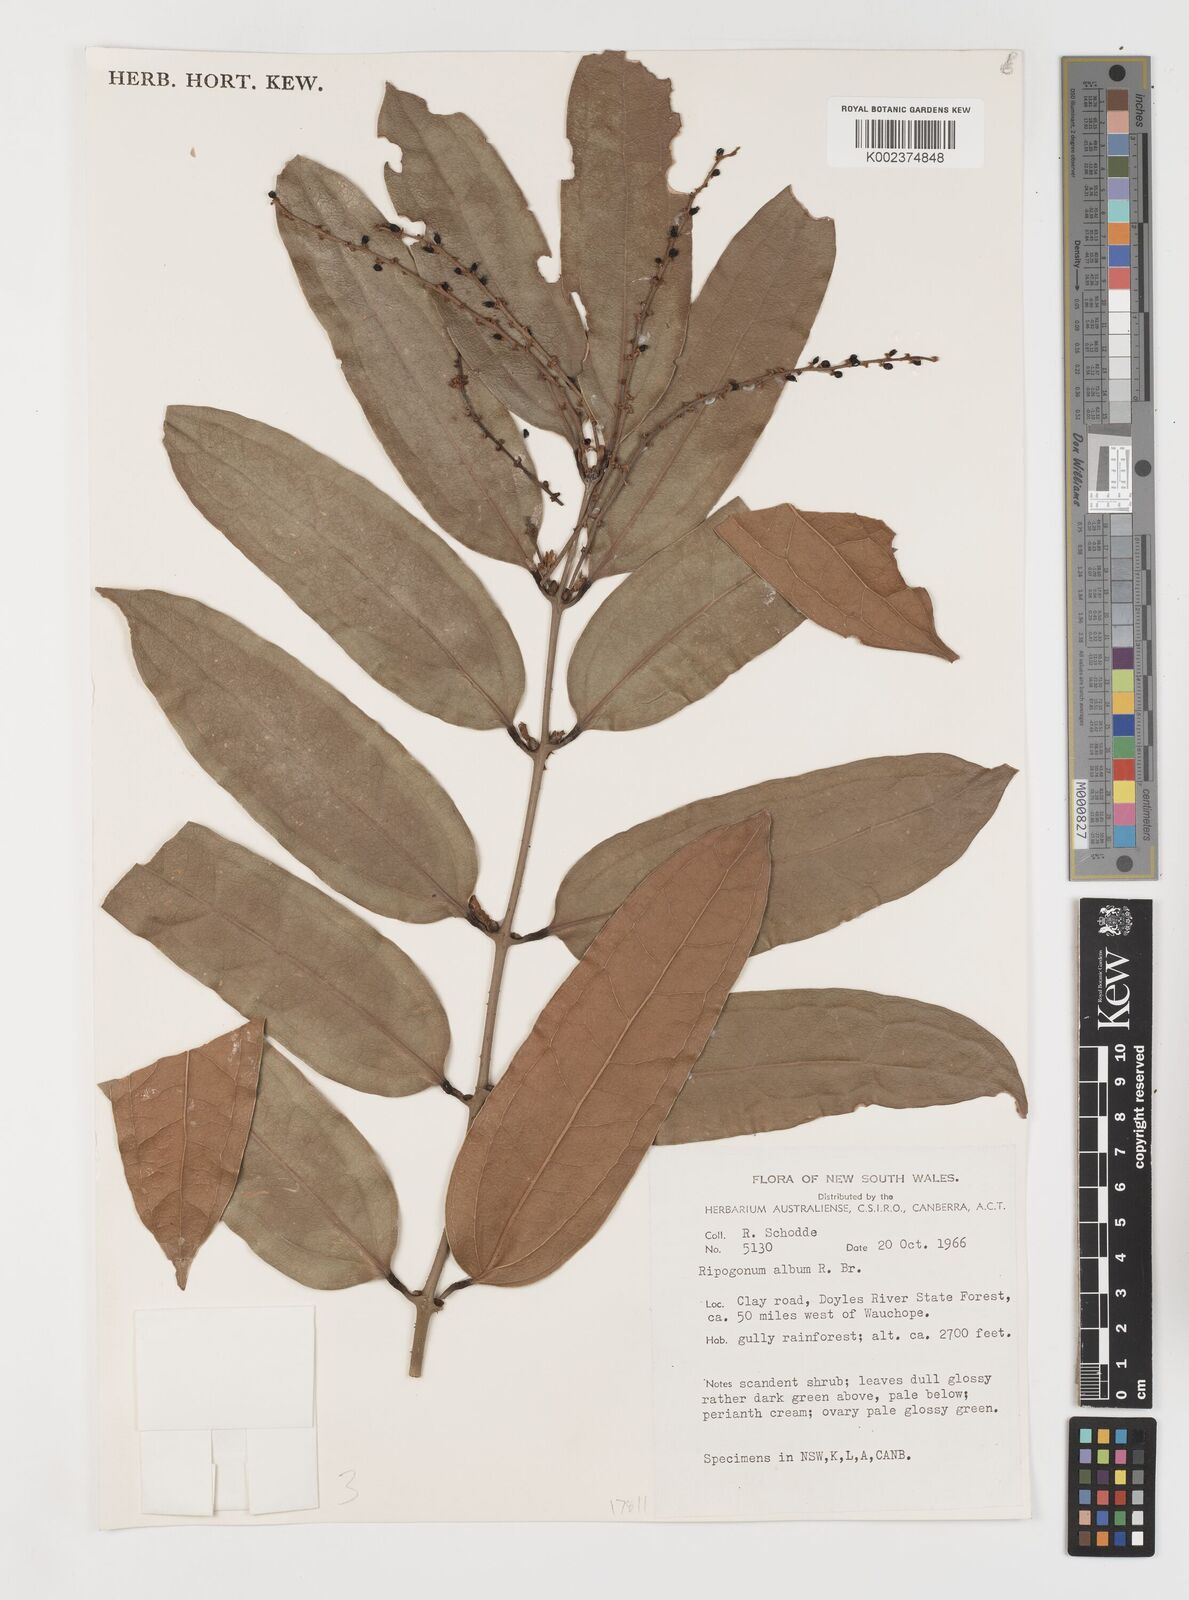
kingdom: Plantae
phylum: Tracheophyta
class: Liliopsida
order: Liliales
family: Ripogonaceae
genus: Ripogonum
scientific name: Ripogonum album
